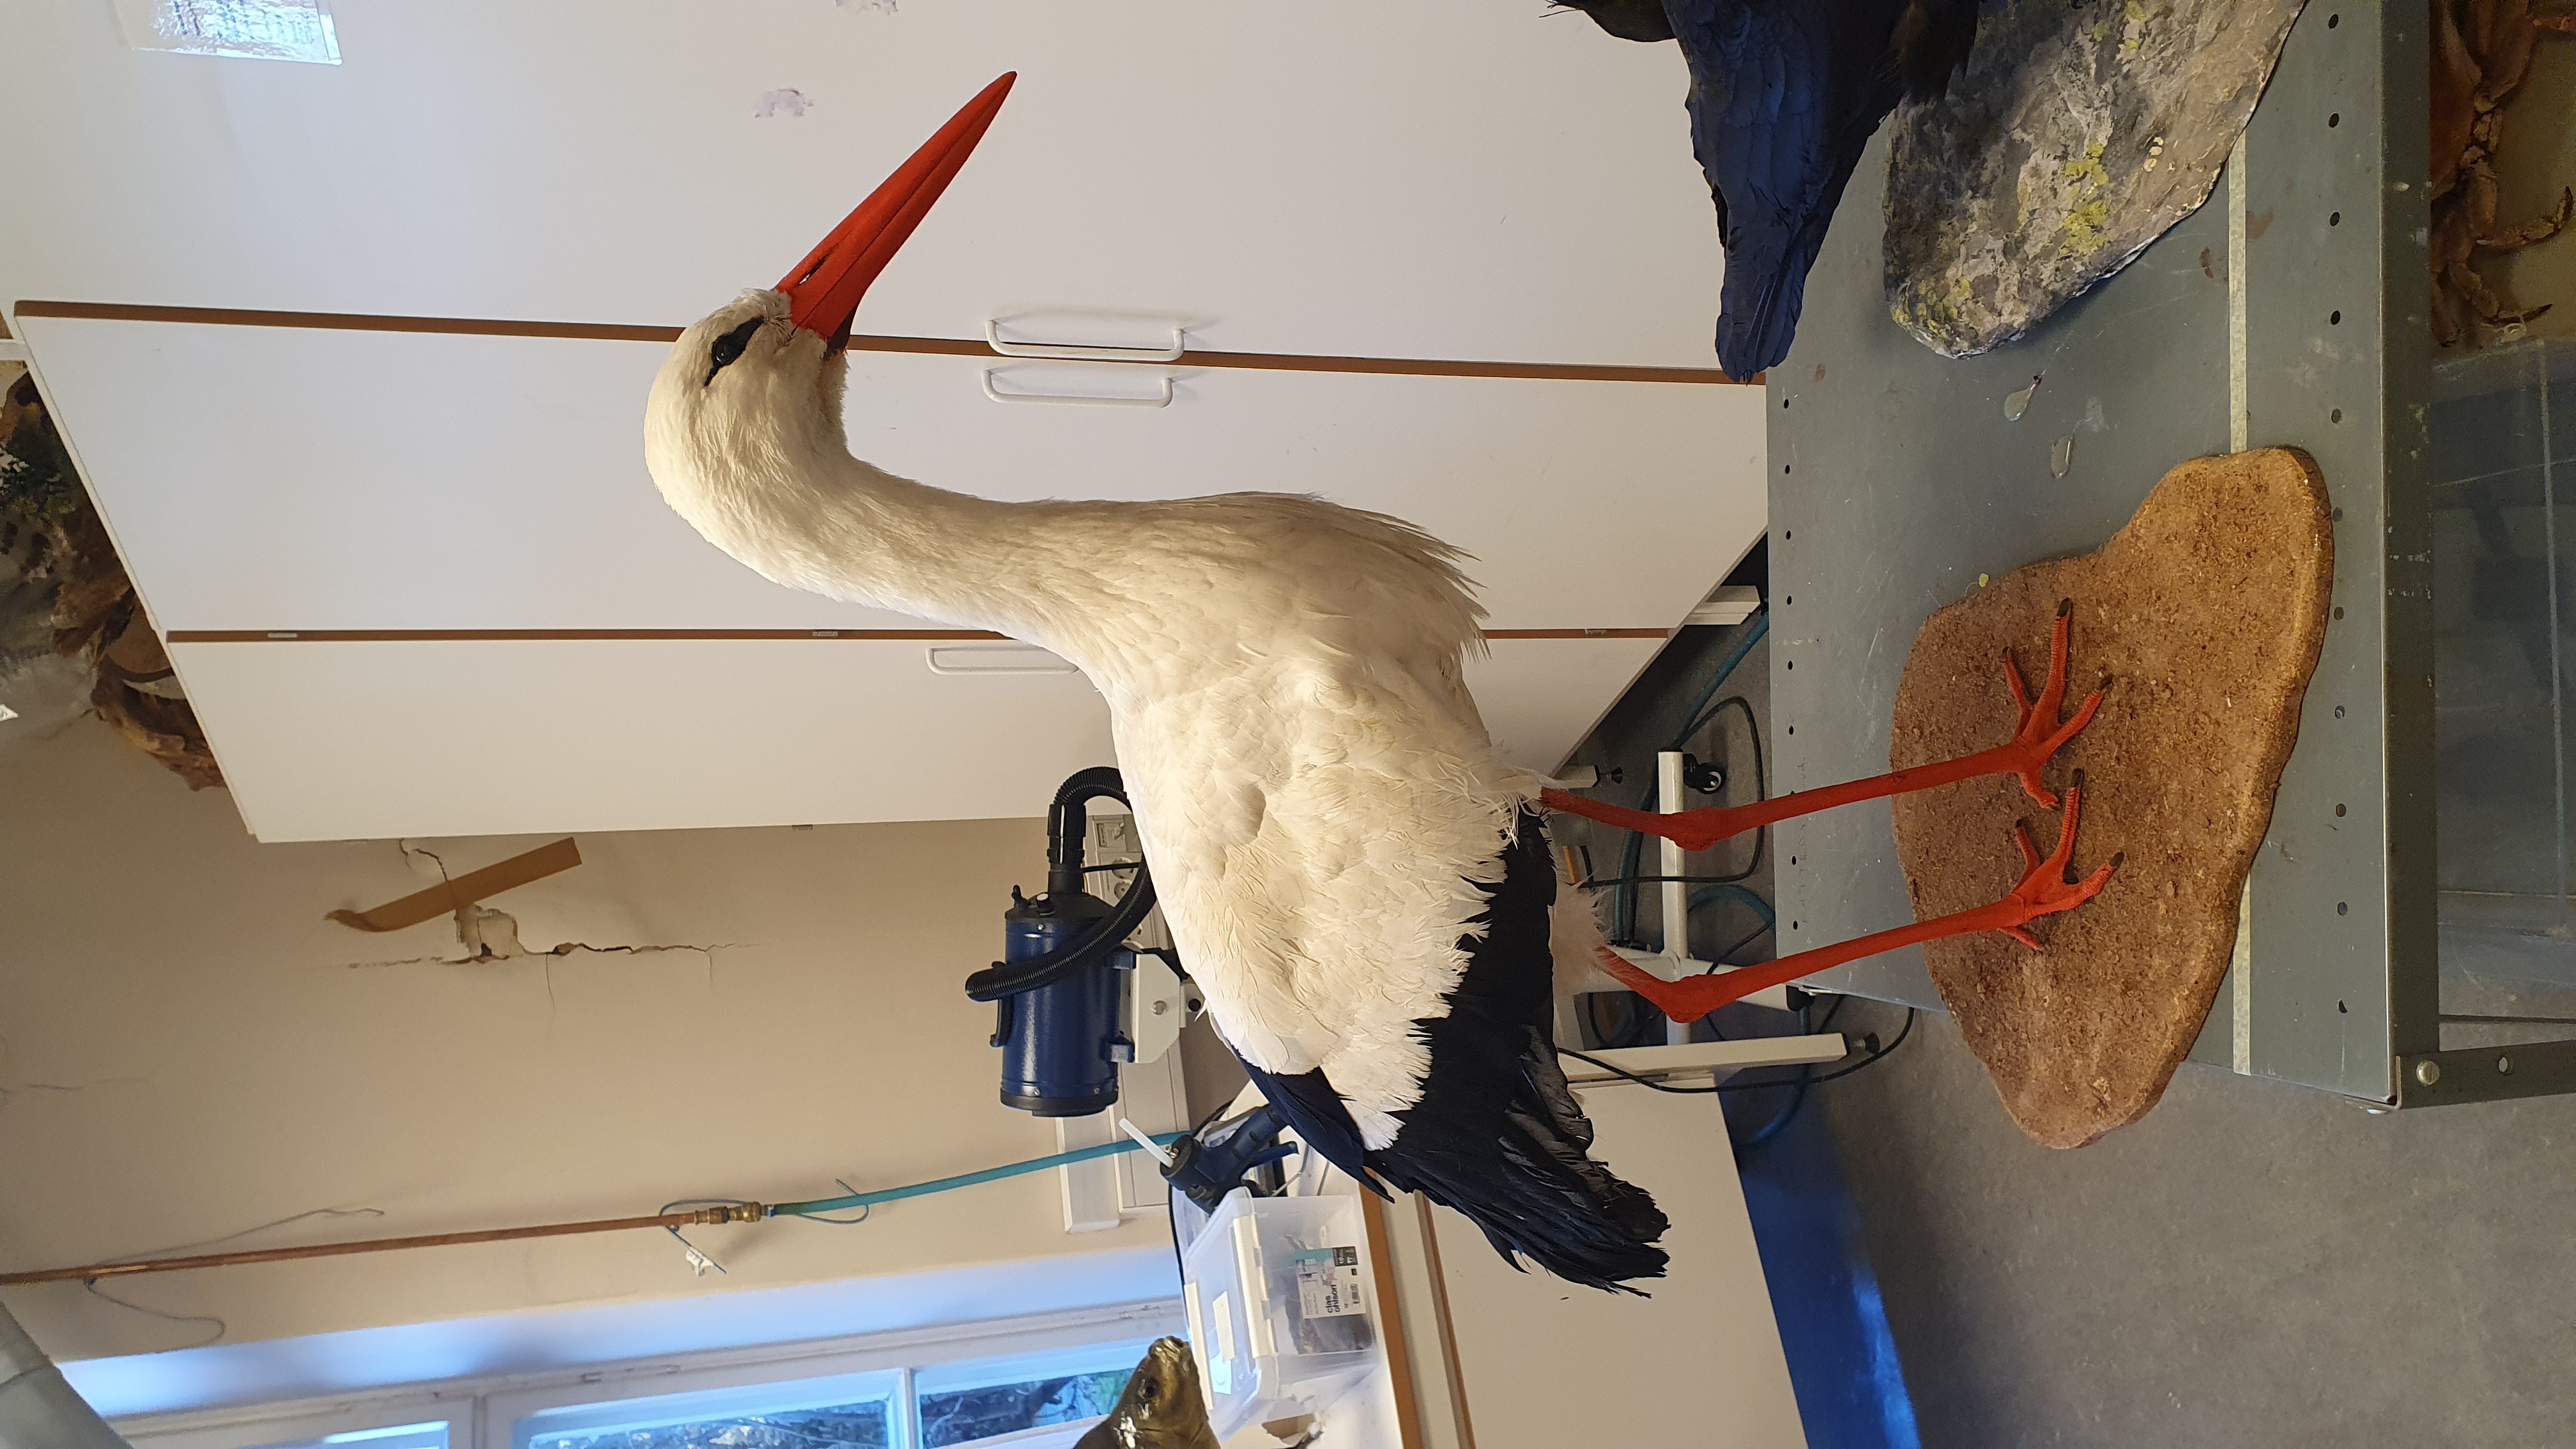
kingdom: Animalia
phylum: Chordata
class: Aves
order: Ciconiiformes
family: Ciconiidae
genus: Ciconia
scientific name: Ciconia ciconia
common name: White stork
